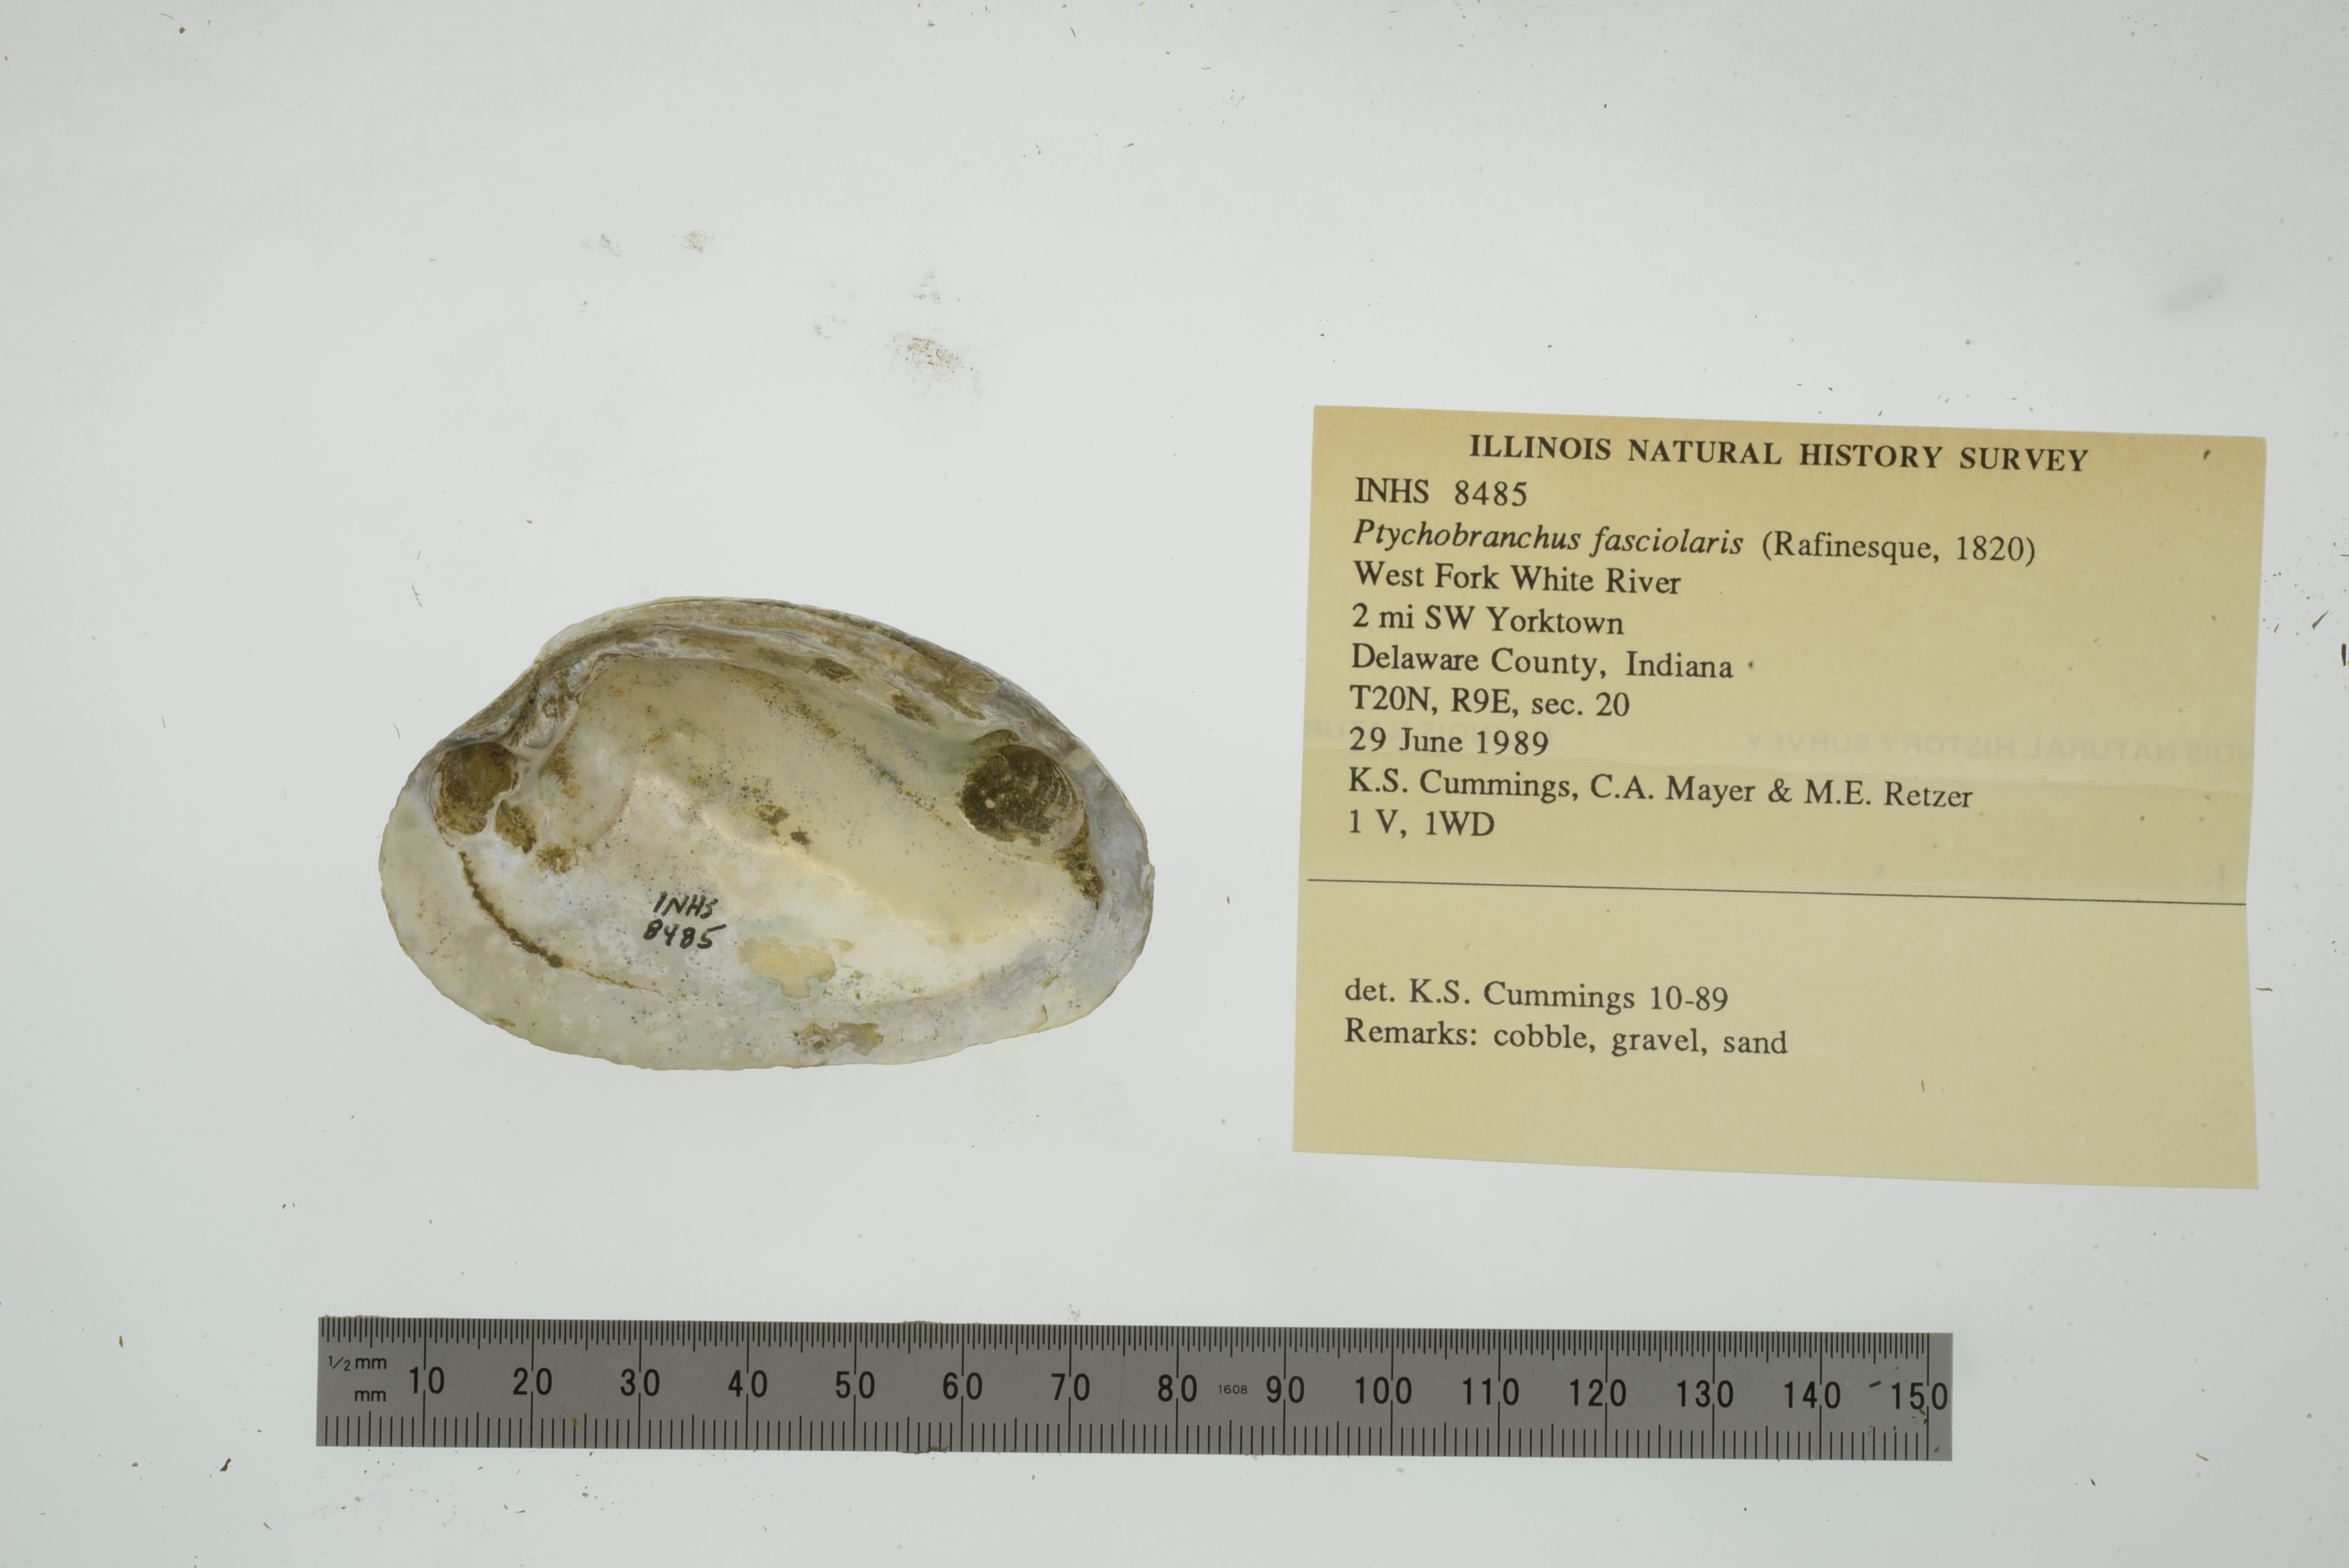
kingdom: Animalia
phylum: Mollusca
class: Bivalvia
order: Unionida
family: Unionidae
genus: Ptychobranchus
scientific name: Ptychobranchus fasciolaris
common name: Kidneyshell
